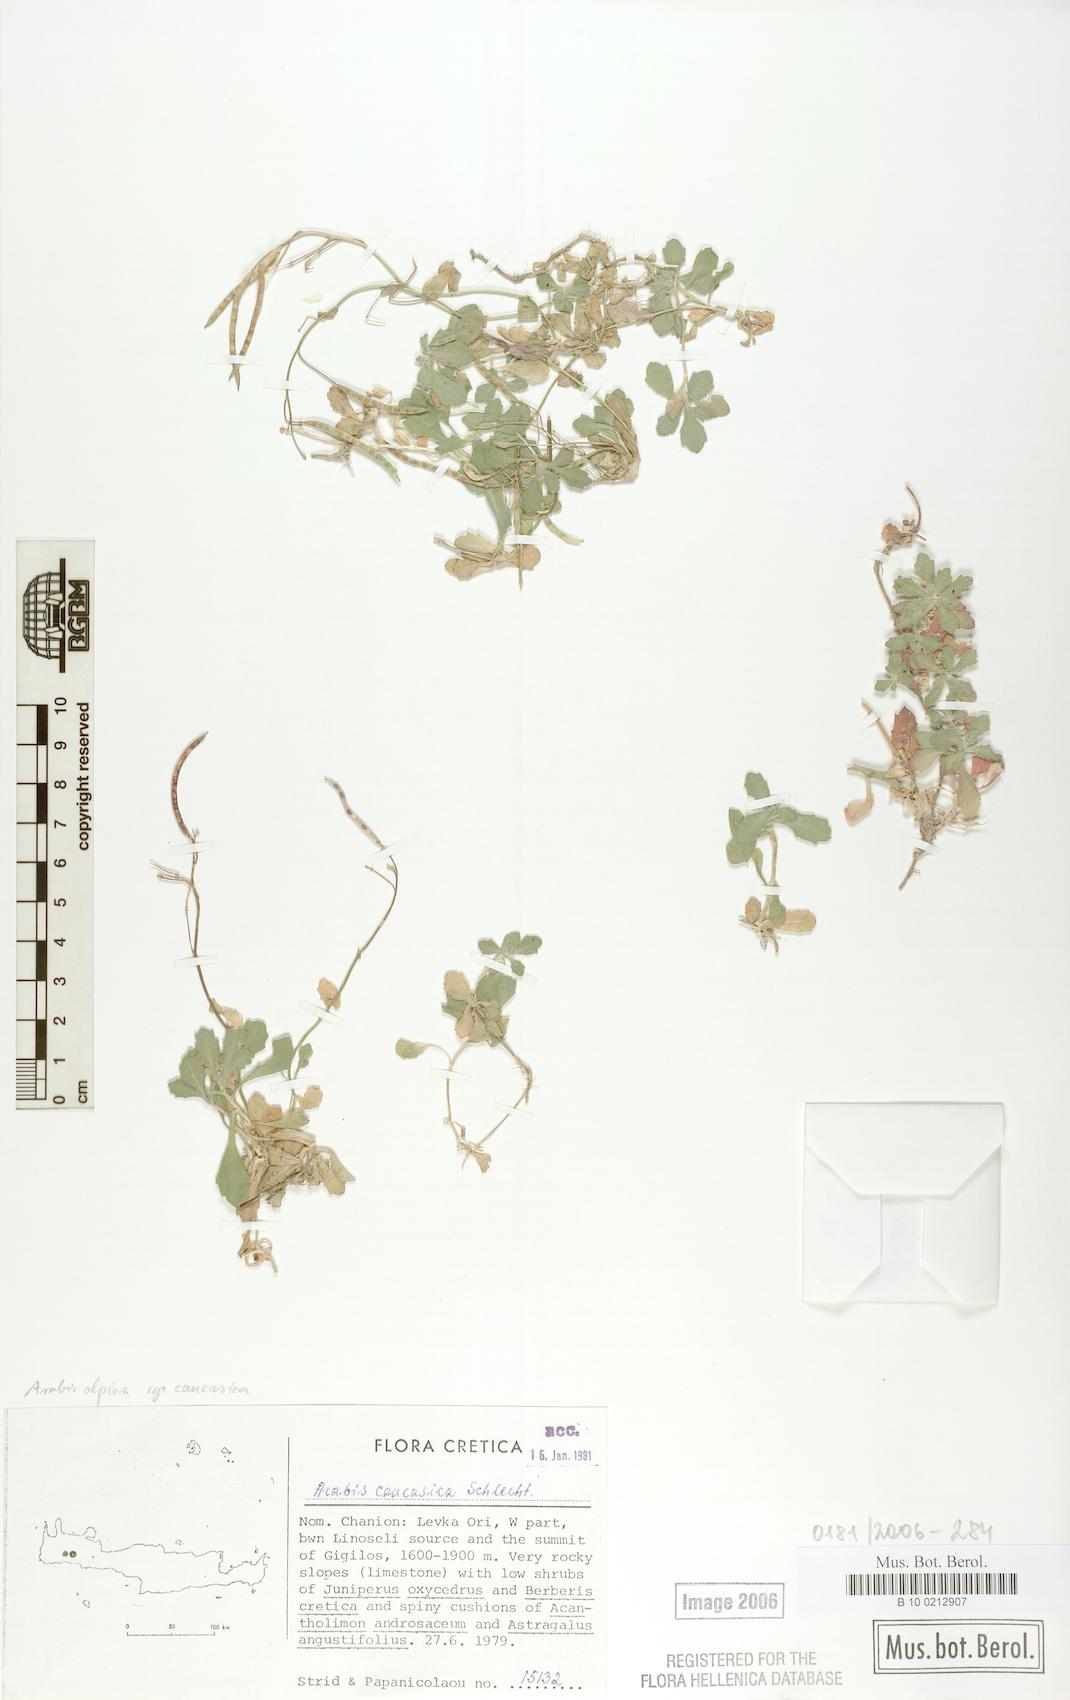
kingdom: Plantae
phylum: Tracheophyta
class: Magnoliopsida
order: Brassicales
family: Brassicaceae
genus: Arabis
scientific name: Arabis caucasica
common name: Gray rockcress
